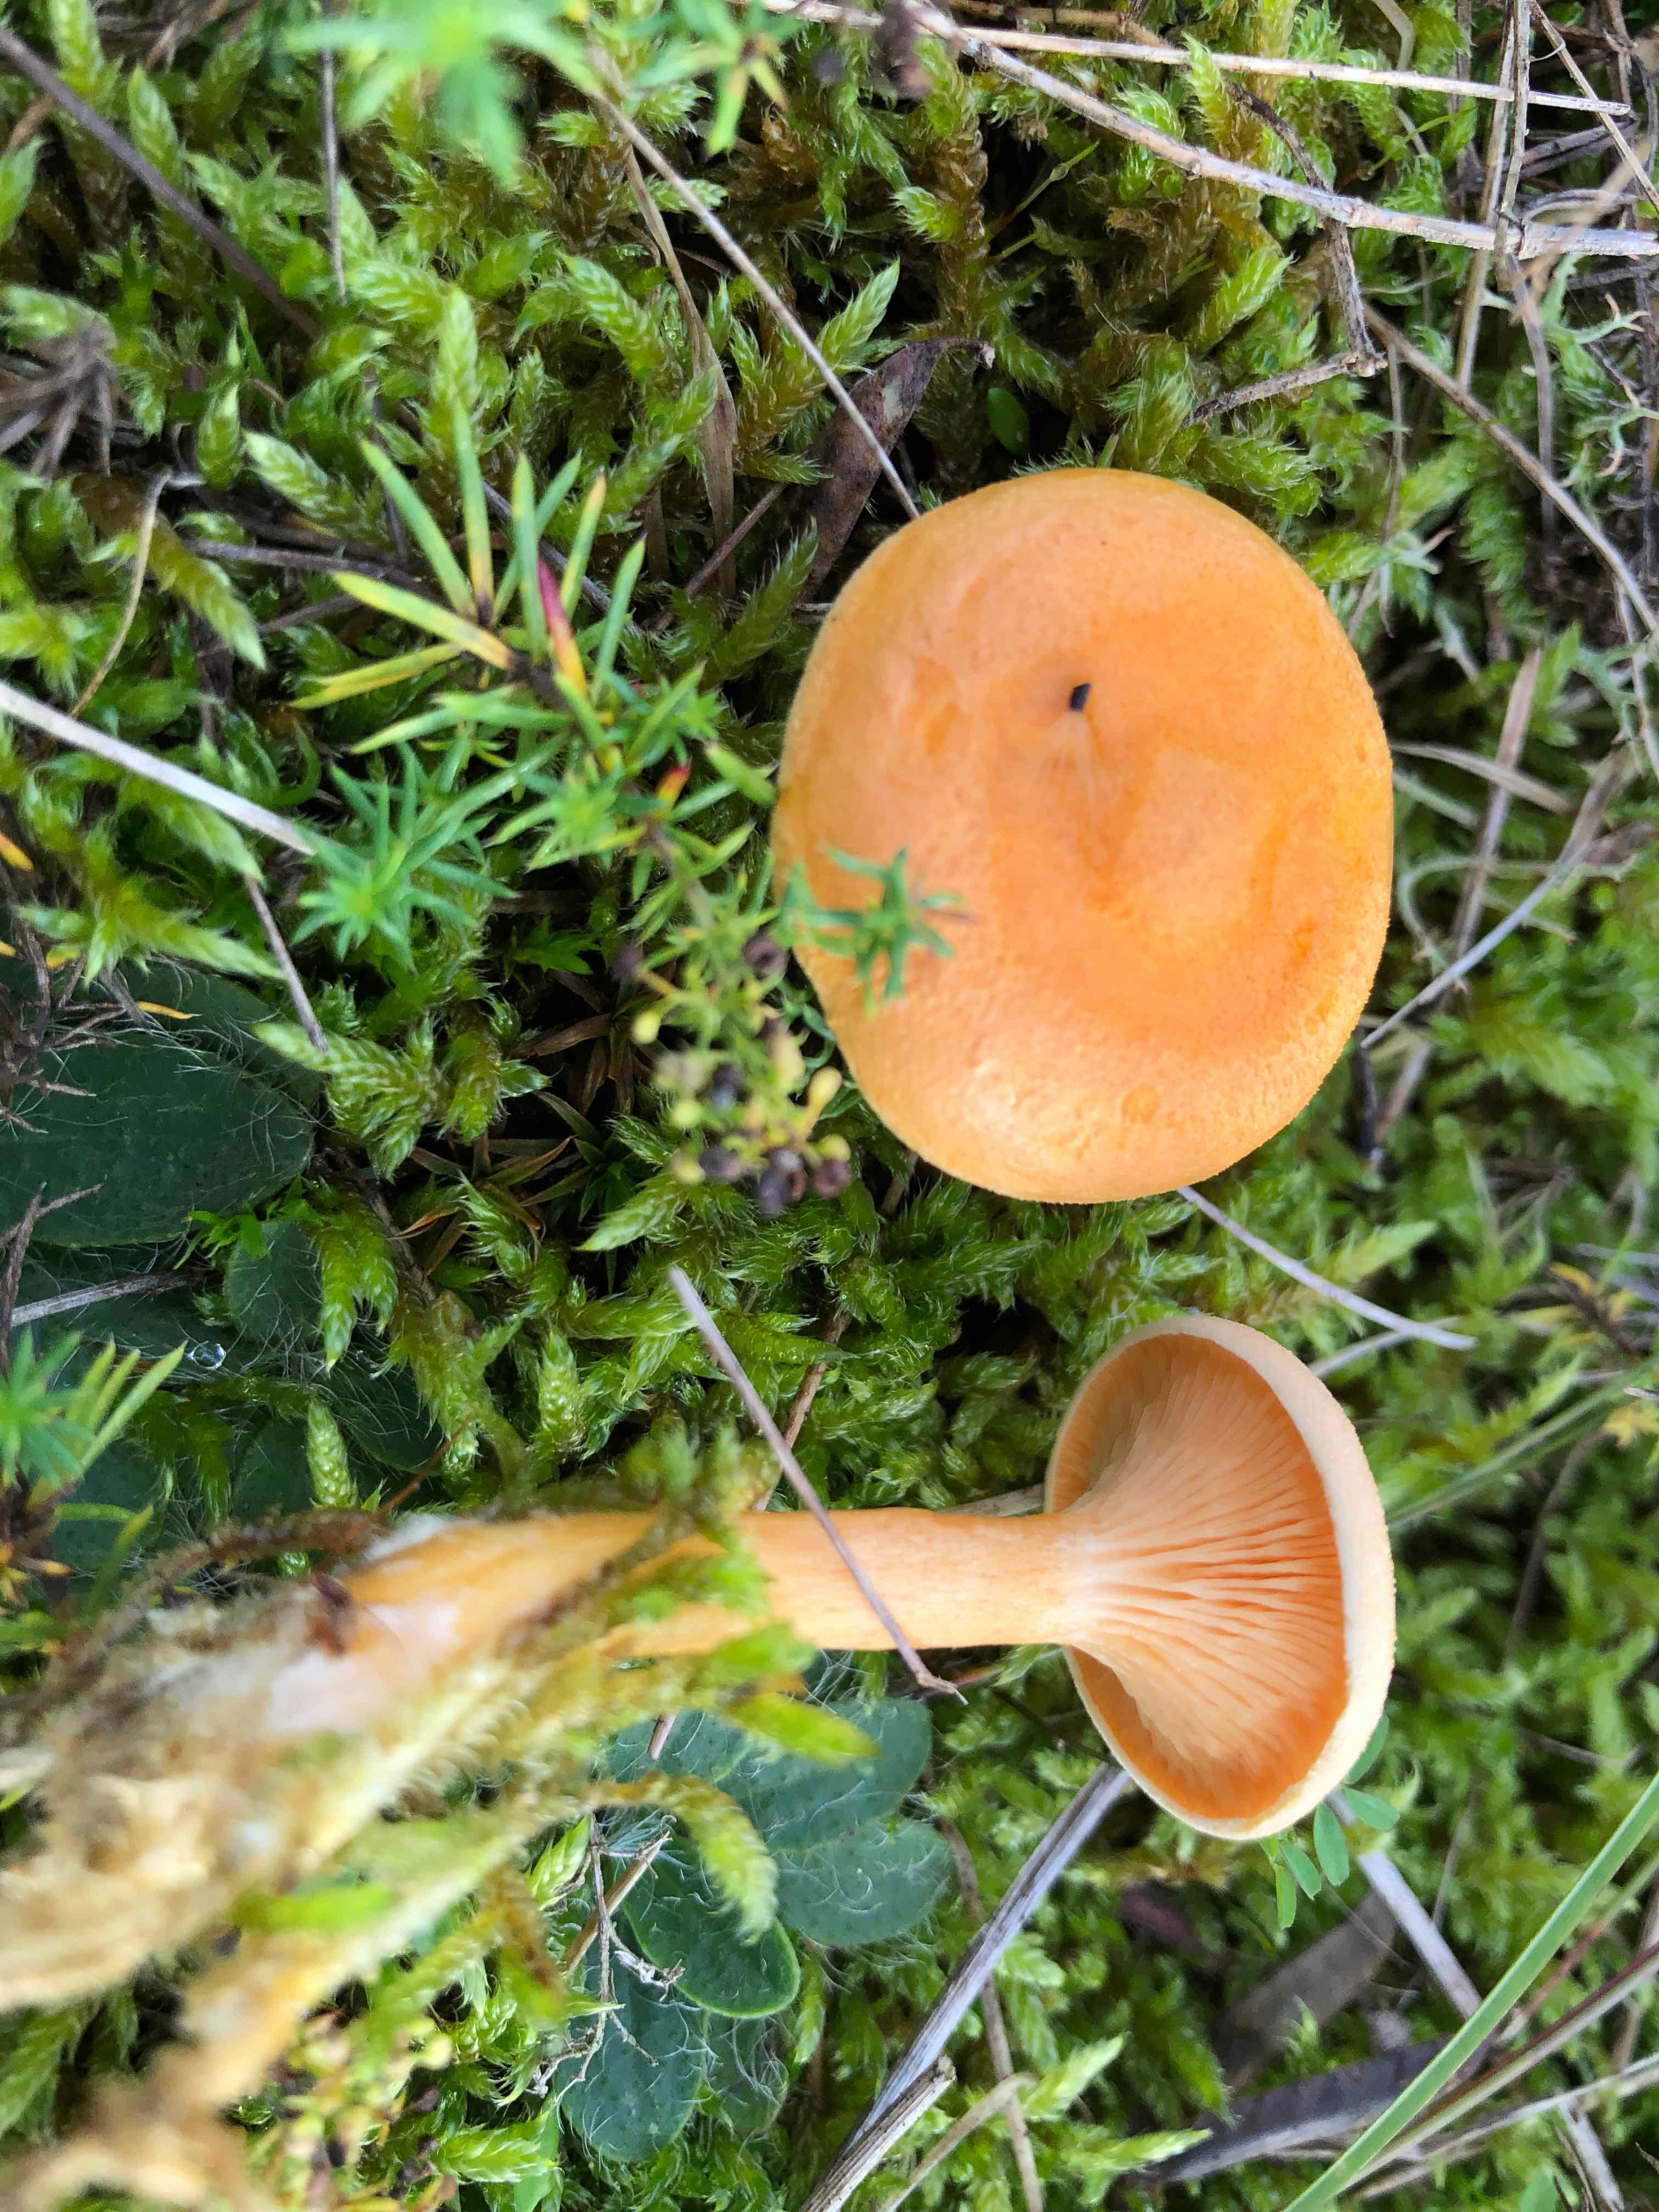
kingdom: Fungi
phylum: Basidiomycota
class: Agaricomycetes
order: Boletales
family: Hygrophoropsidaceae
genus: Hygrophoropsis
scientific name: Hygrophoropsis aurantiaca
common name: almindelig orangekantarel
